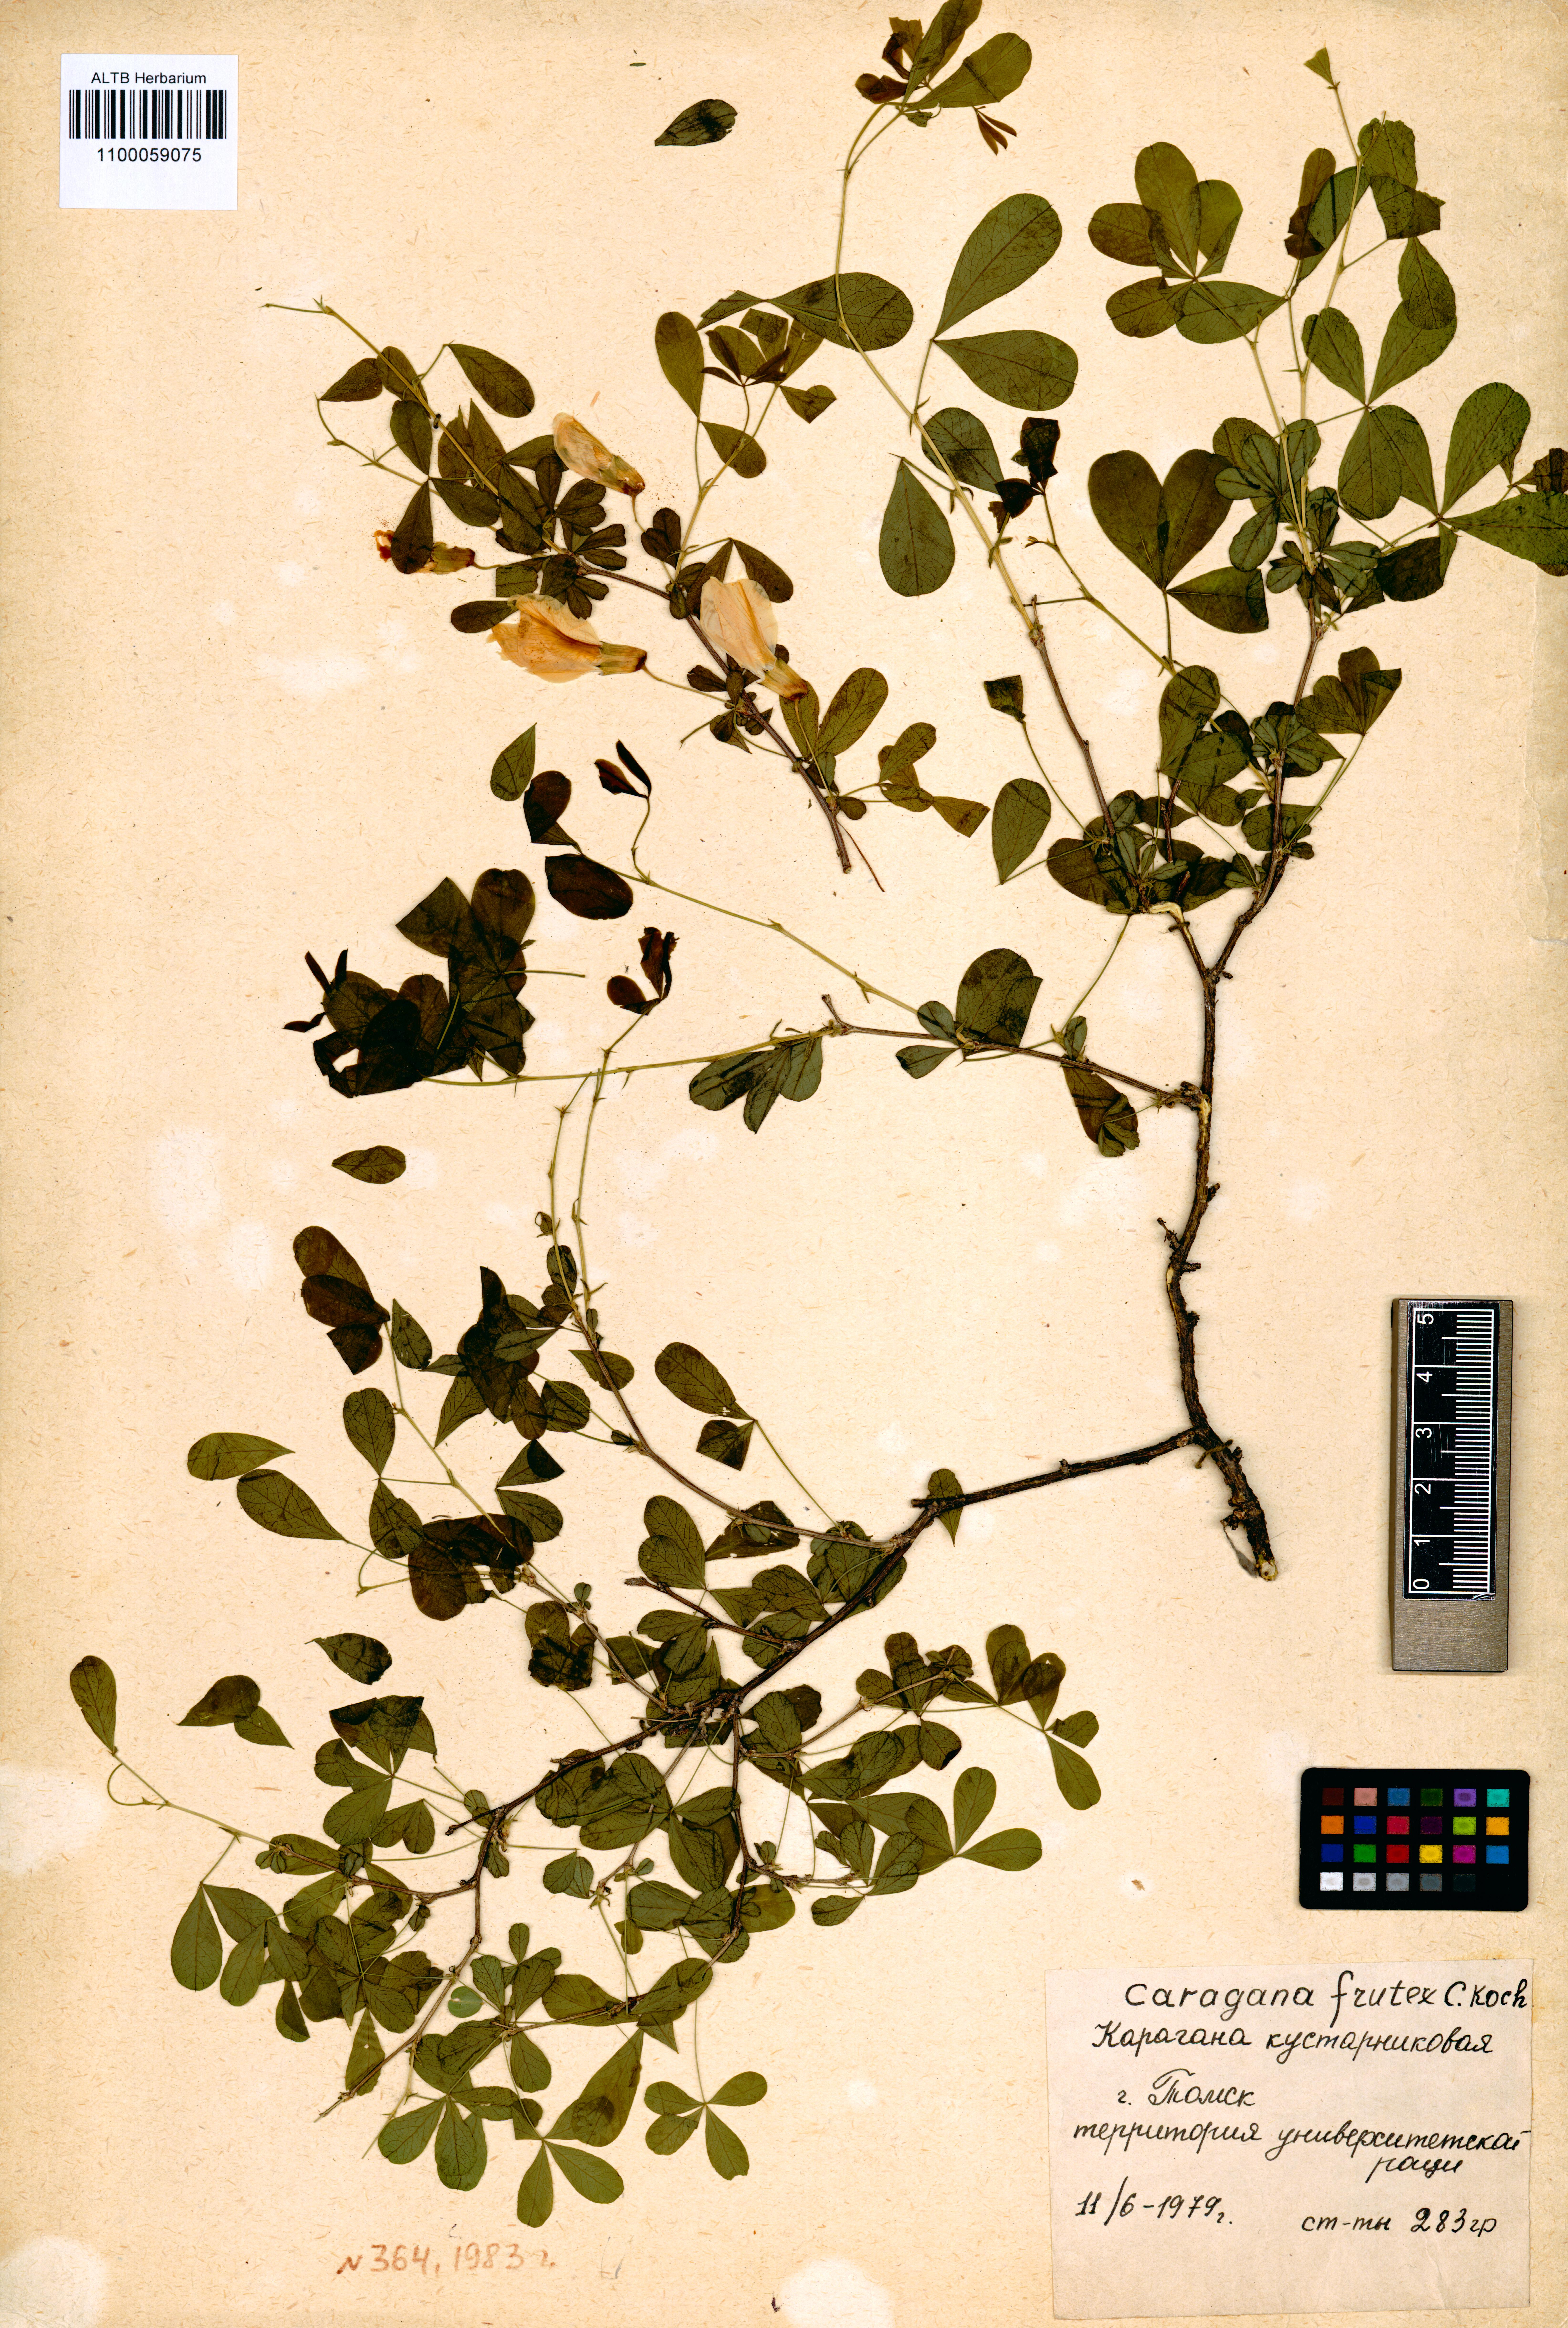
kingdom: Plantae
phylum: Tracheophyta
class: Magnoliopsida
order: Fabales
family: Fabaceae
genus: Caragana
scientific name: Caragana frutex
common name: Russian peashrub
